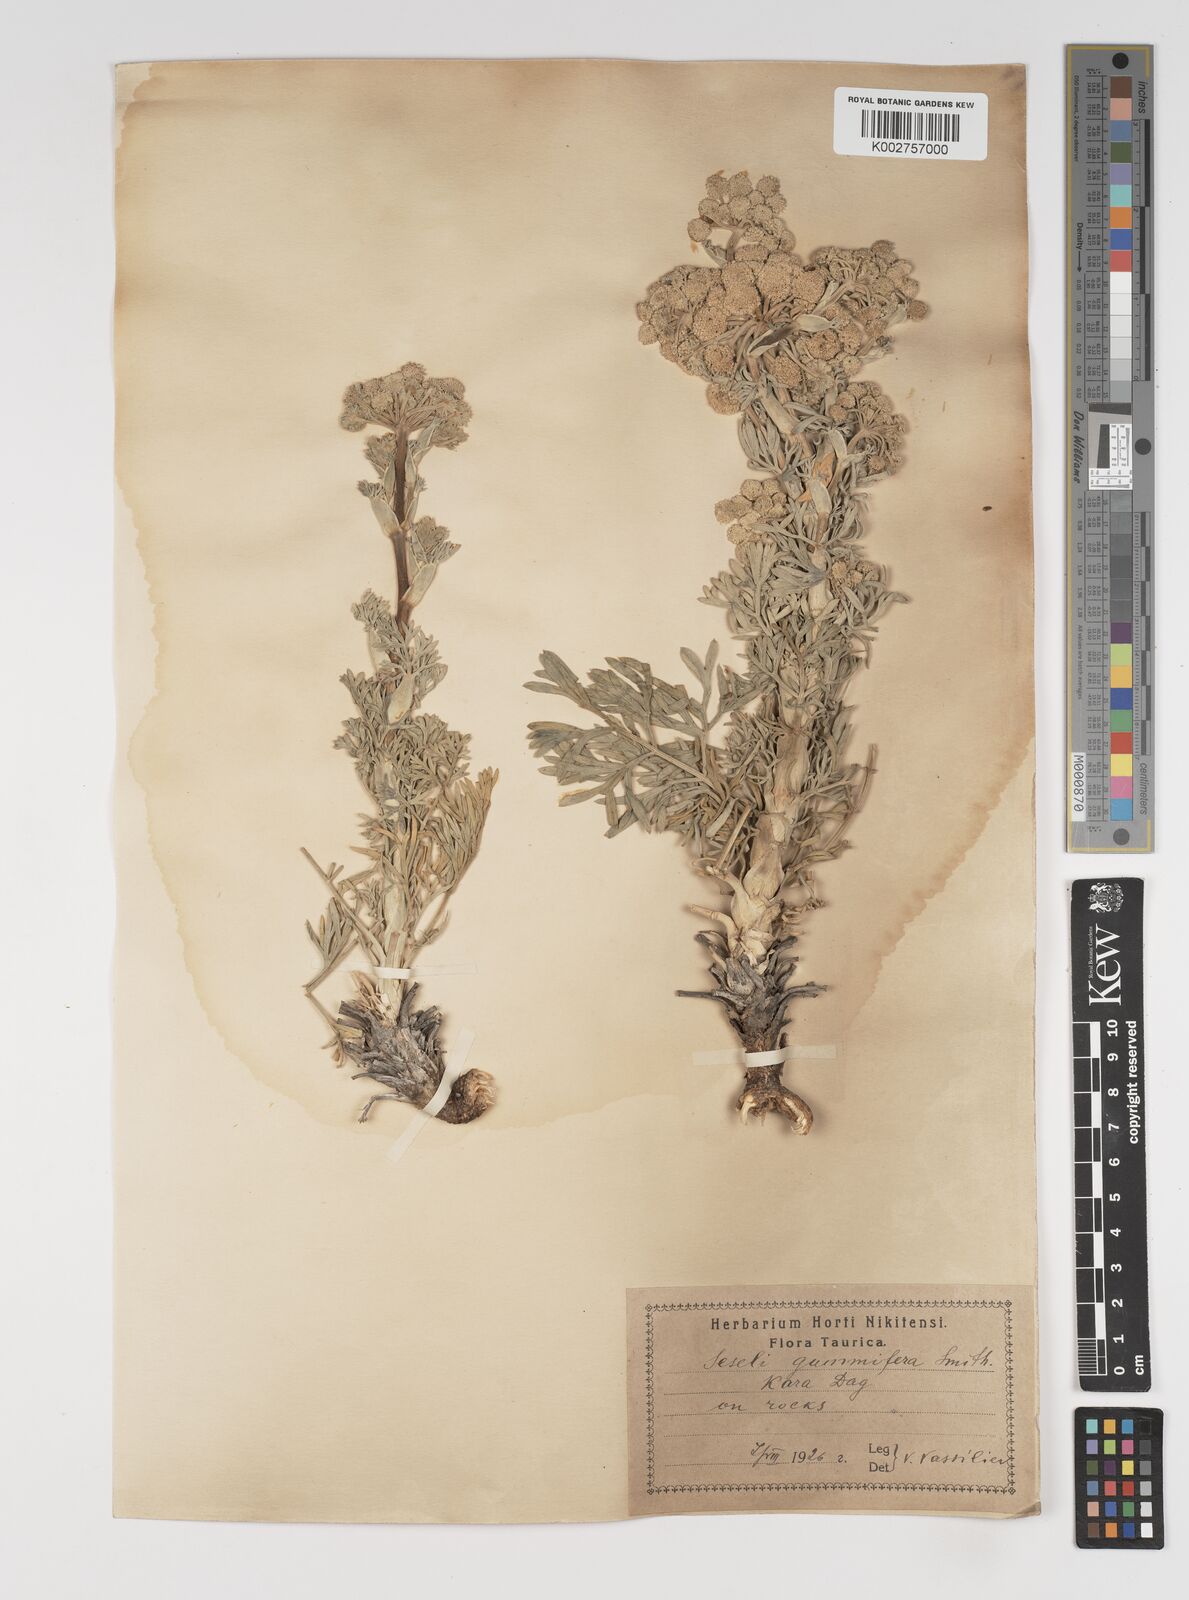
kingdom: Plantae
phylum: Tracheophyta
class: Magnoliopsida
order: Apiales
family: Apiaceae
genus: Seseli
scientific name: Seseli gummiferum
